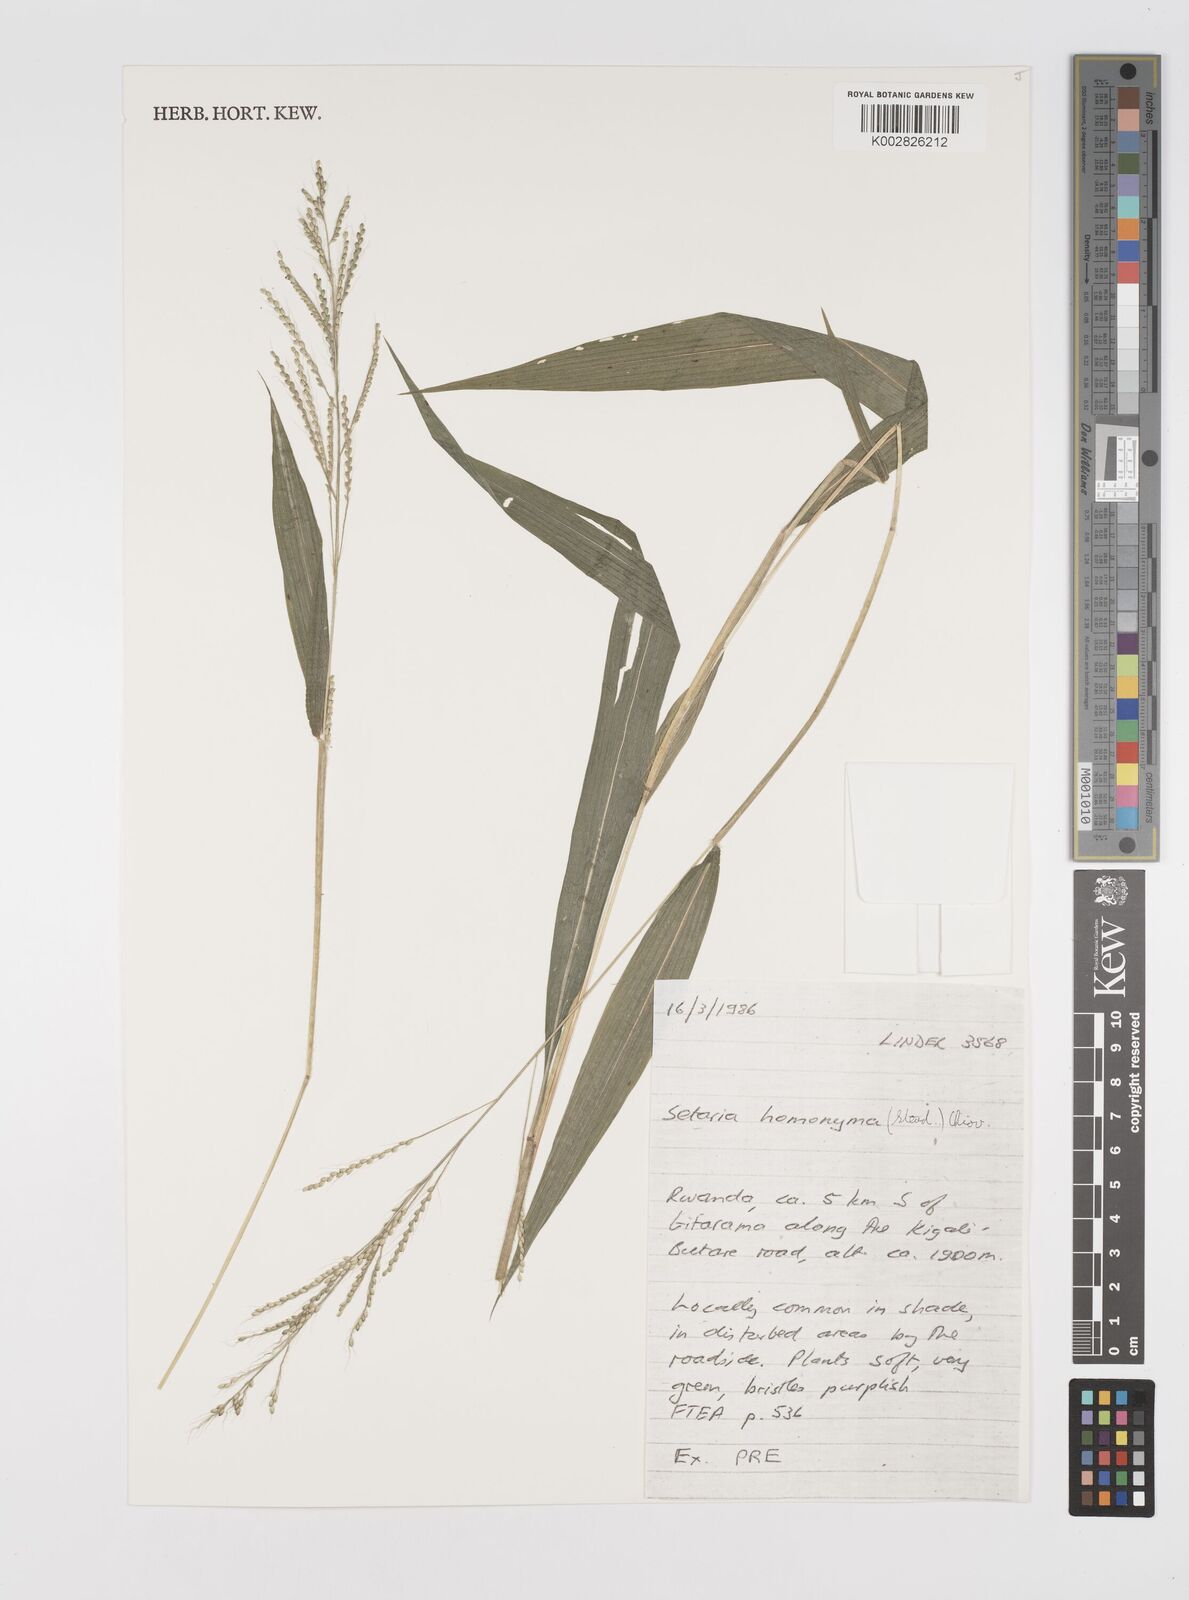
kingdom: Plantae
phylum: Tracheophyta
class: Liliopsida
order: Poales
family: Poaceae
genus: Setaria
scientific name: Setaria homonyma
